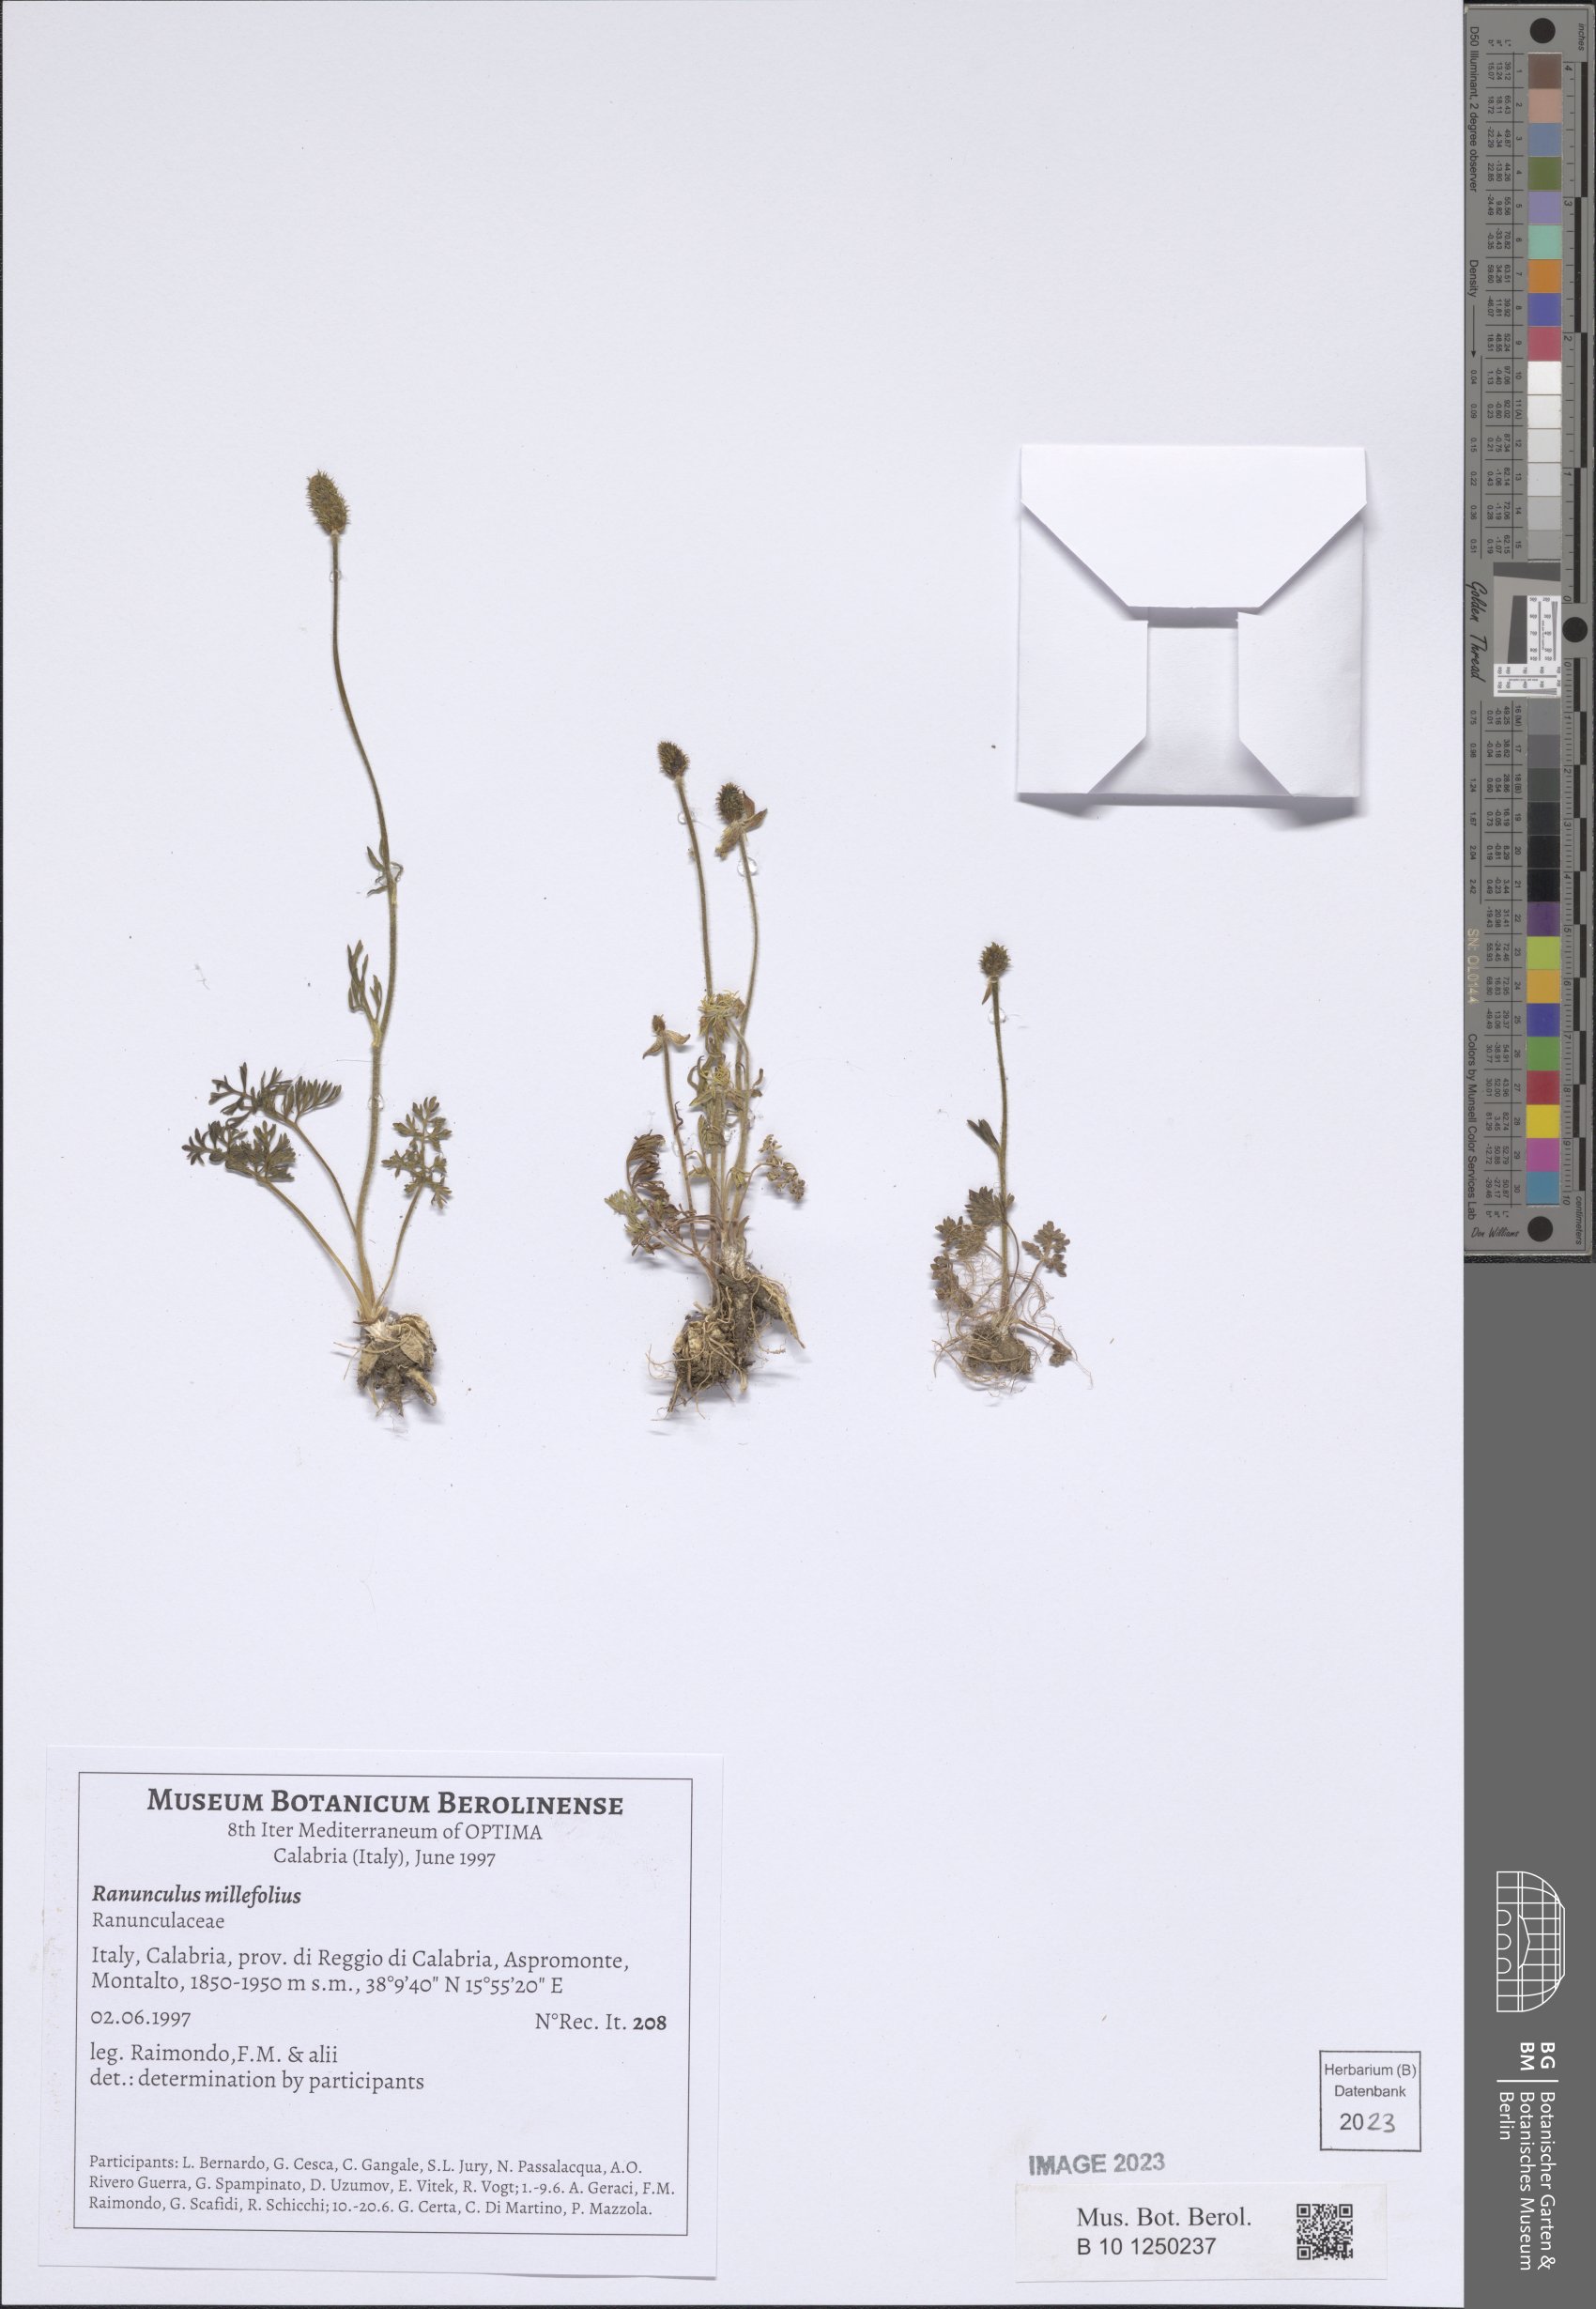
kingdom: Plantae
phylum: Tracheophyta
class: Magnoliopsida
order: Ranunculales
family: Ranunculaceae
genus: Ranunculus
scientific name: Ranunculus millefolius
